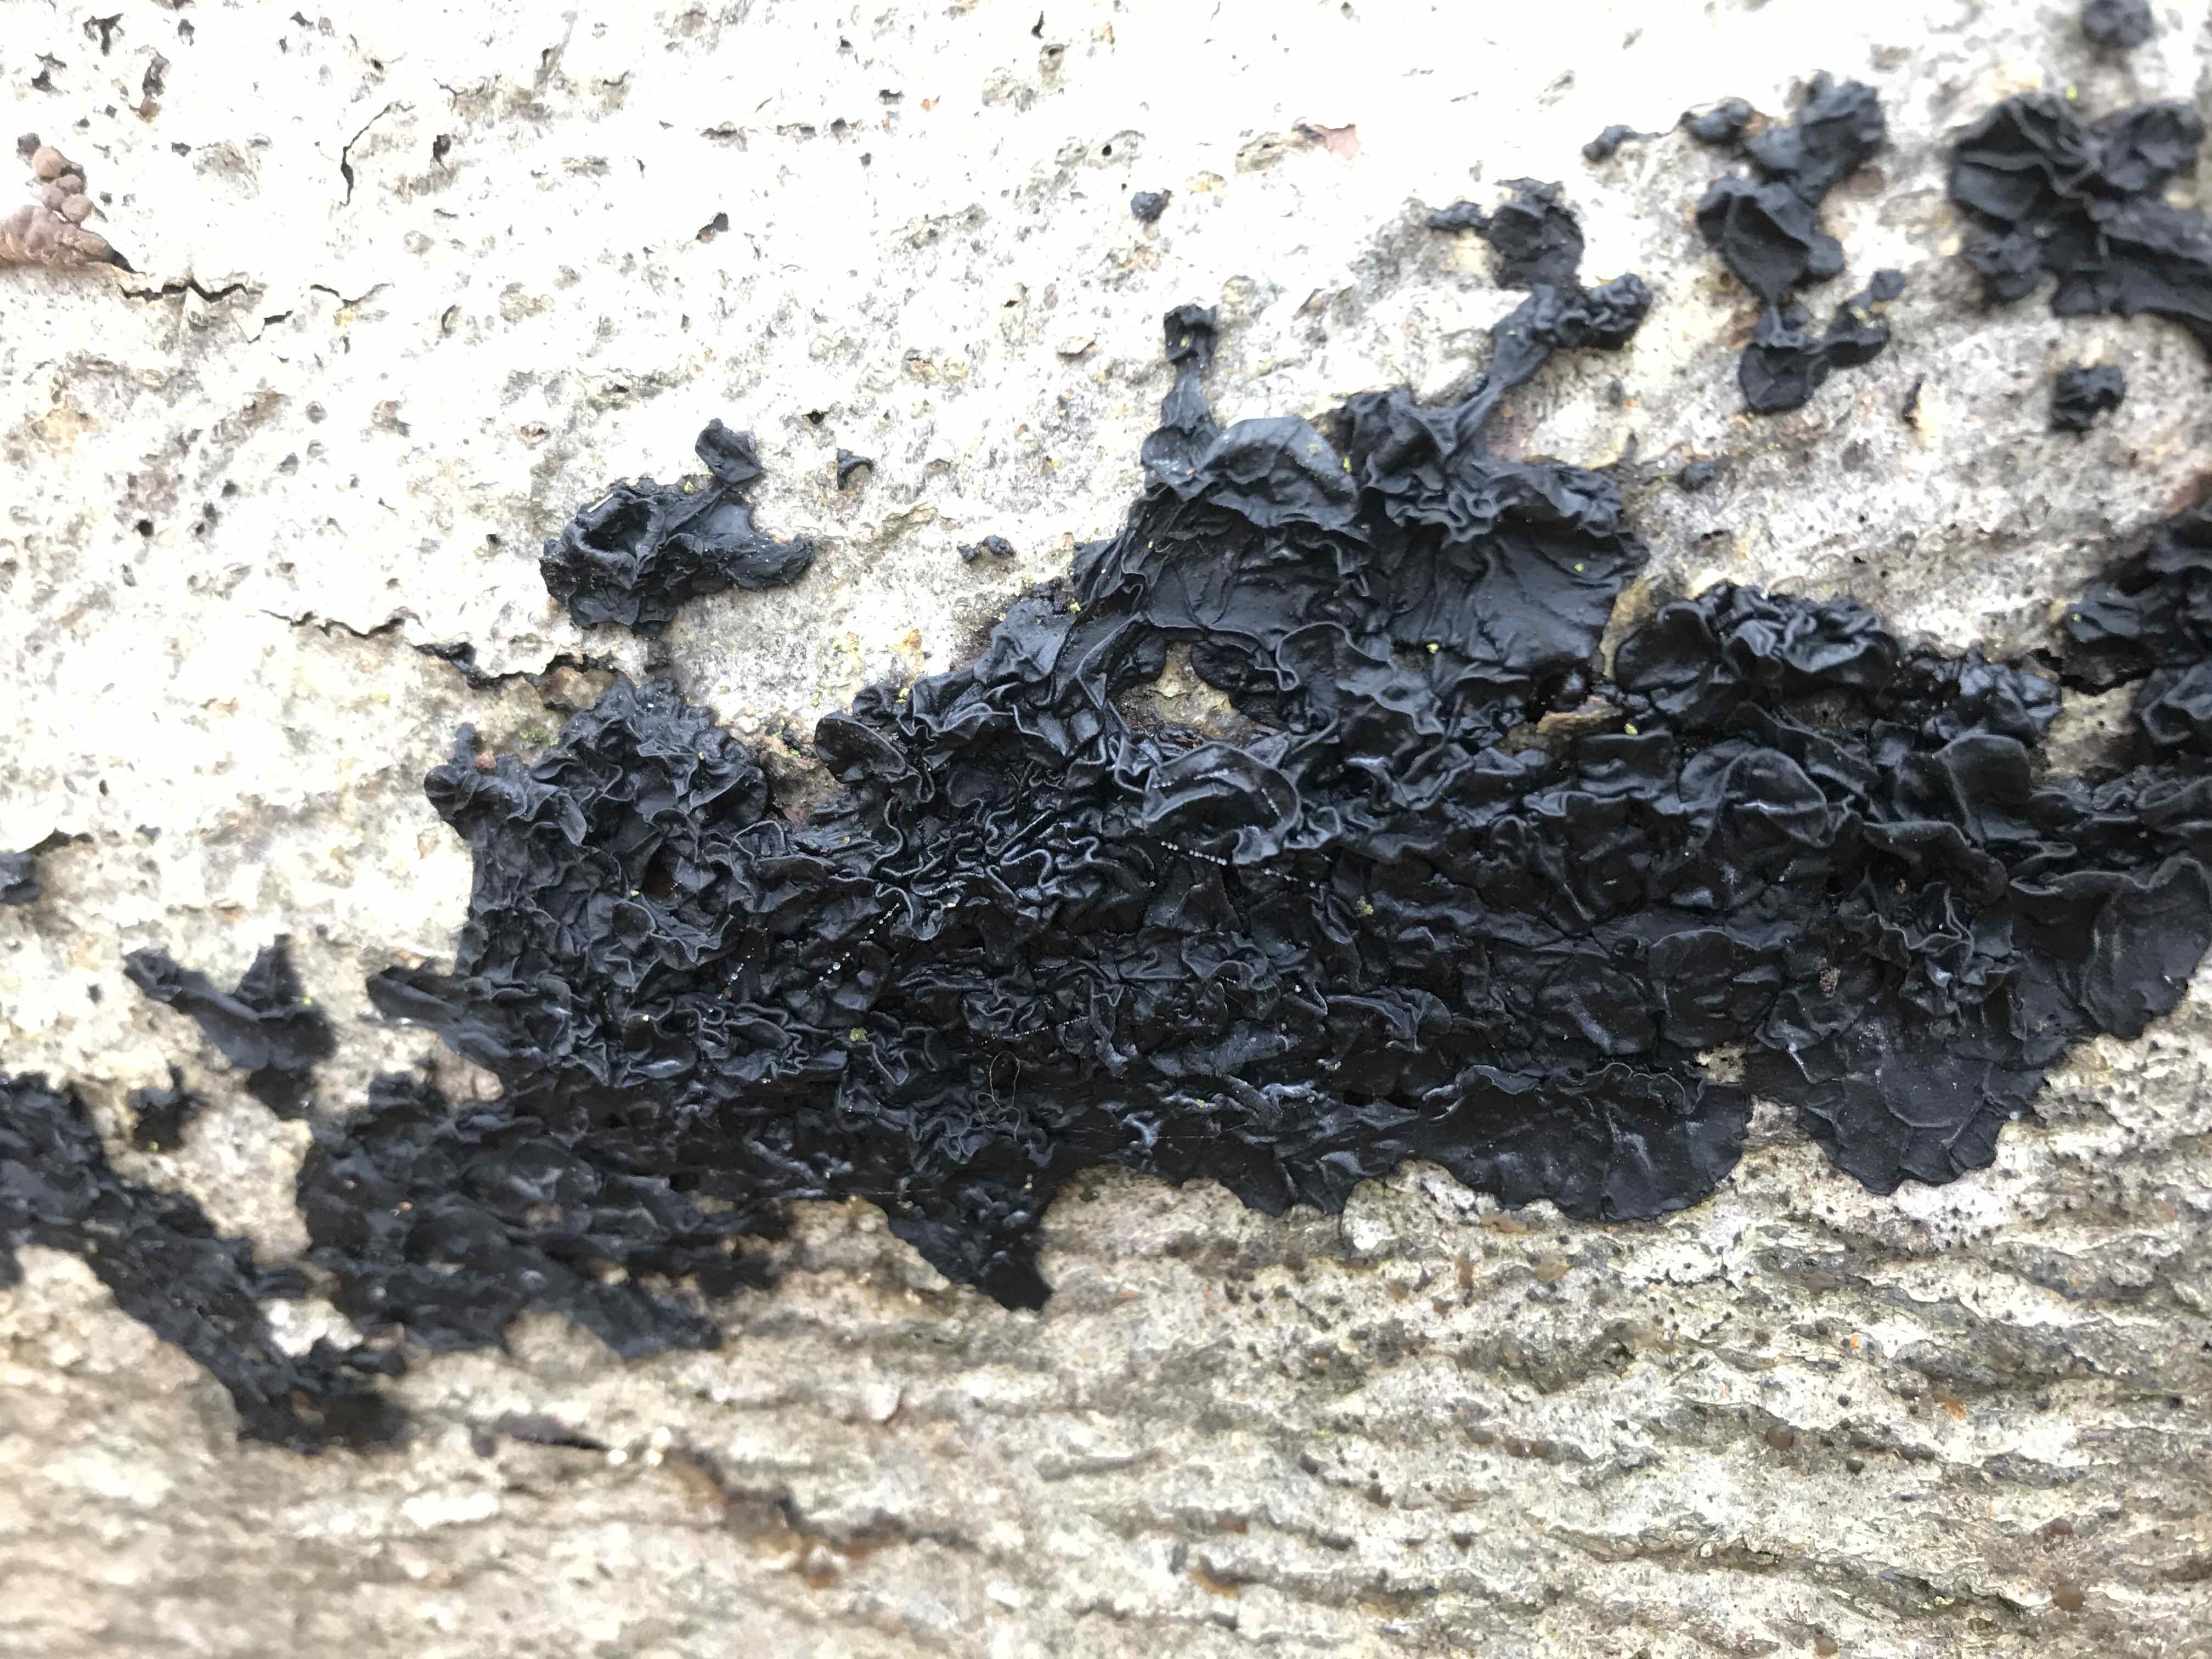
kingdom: Fungi
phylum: Basidiomycota
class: Agaricomycetes
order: Auriculariales
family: Auriculariaceae
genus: Exidia
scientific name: Exidia nigricans
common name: almindelig bævretop
